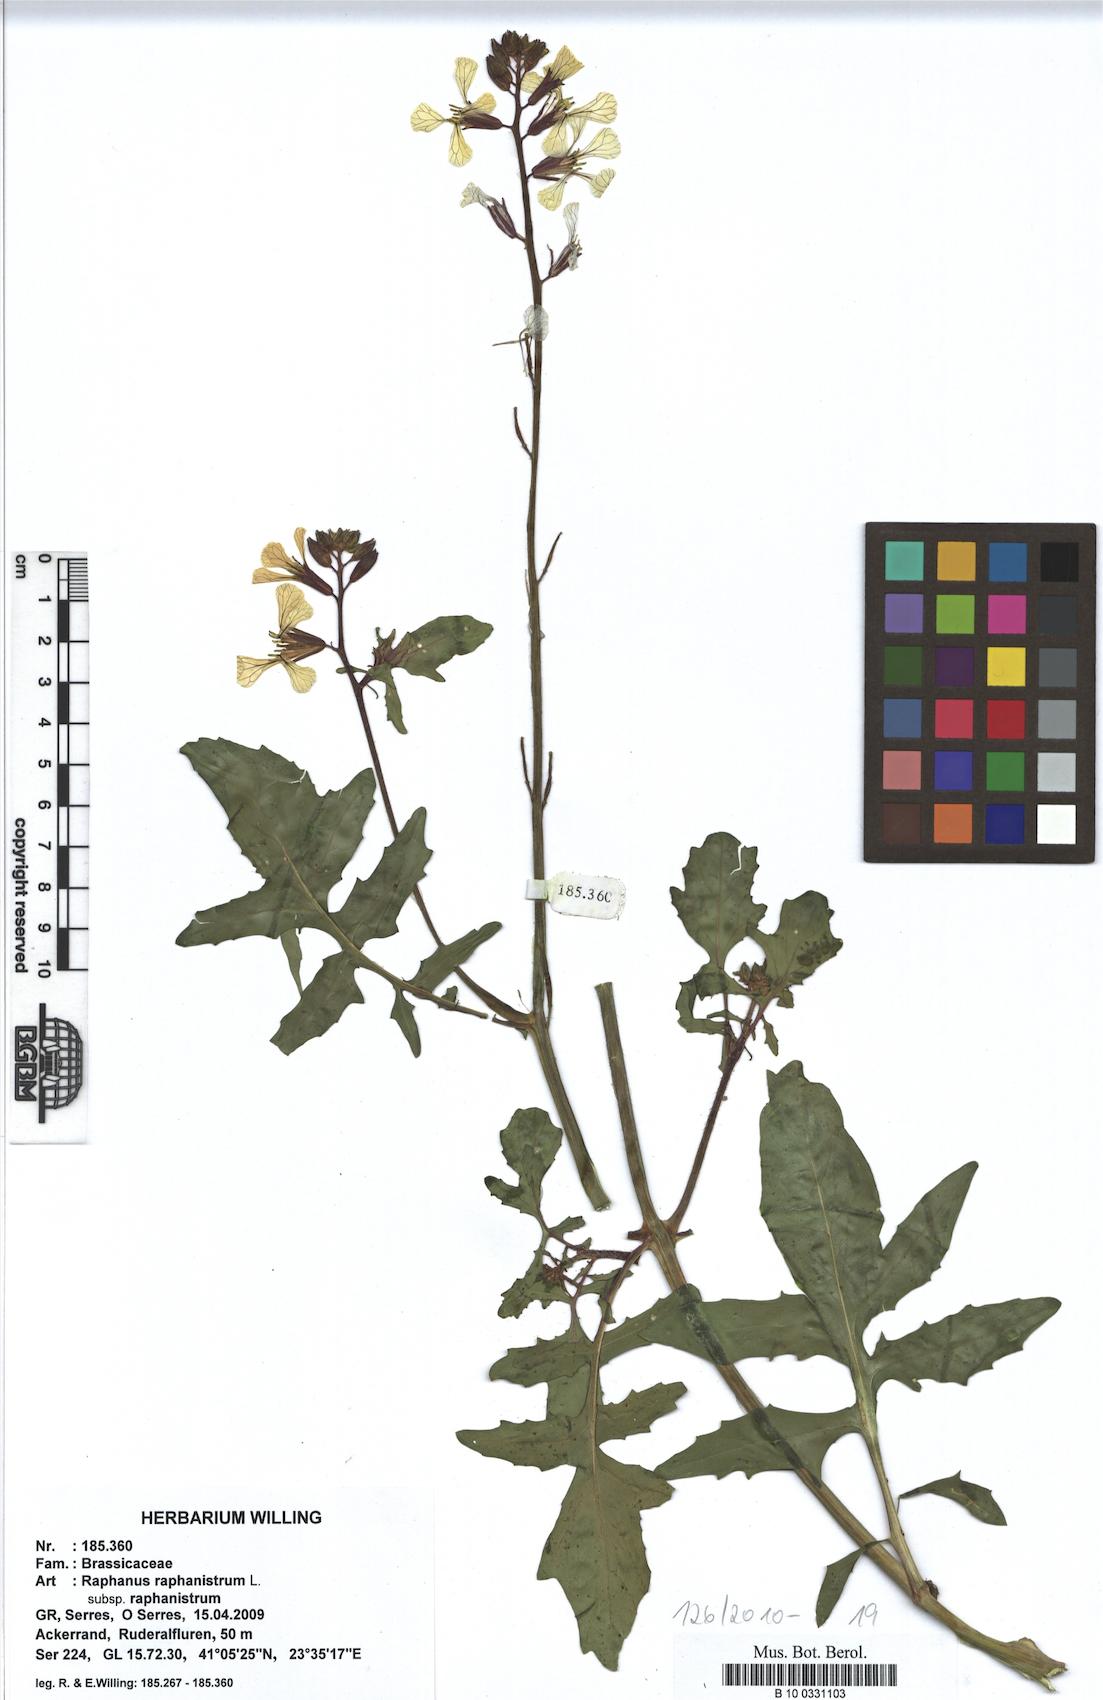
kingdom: Plantae
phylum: Tracheophyta
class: Magnoliopsida
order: Brassicales
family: Brassicaceae
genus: Raphanus
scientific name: Raphanus raphanistrum
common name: Wild radish
